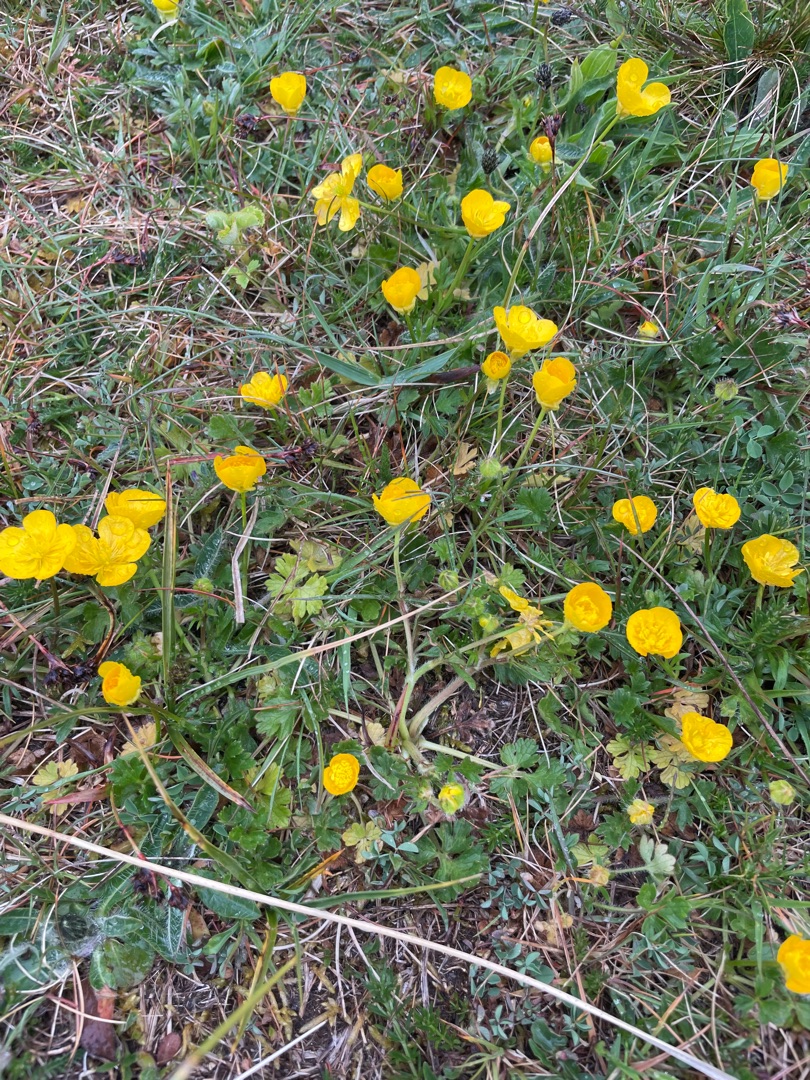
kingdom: Plantae
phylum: Tracheophyta
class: Magnoliopsida
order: Ranunculales
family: Ranunculaceae
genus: Ranunculus
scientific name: Ranunculus bulbosus
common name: Knold-ranunkel
